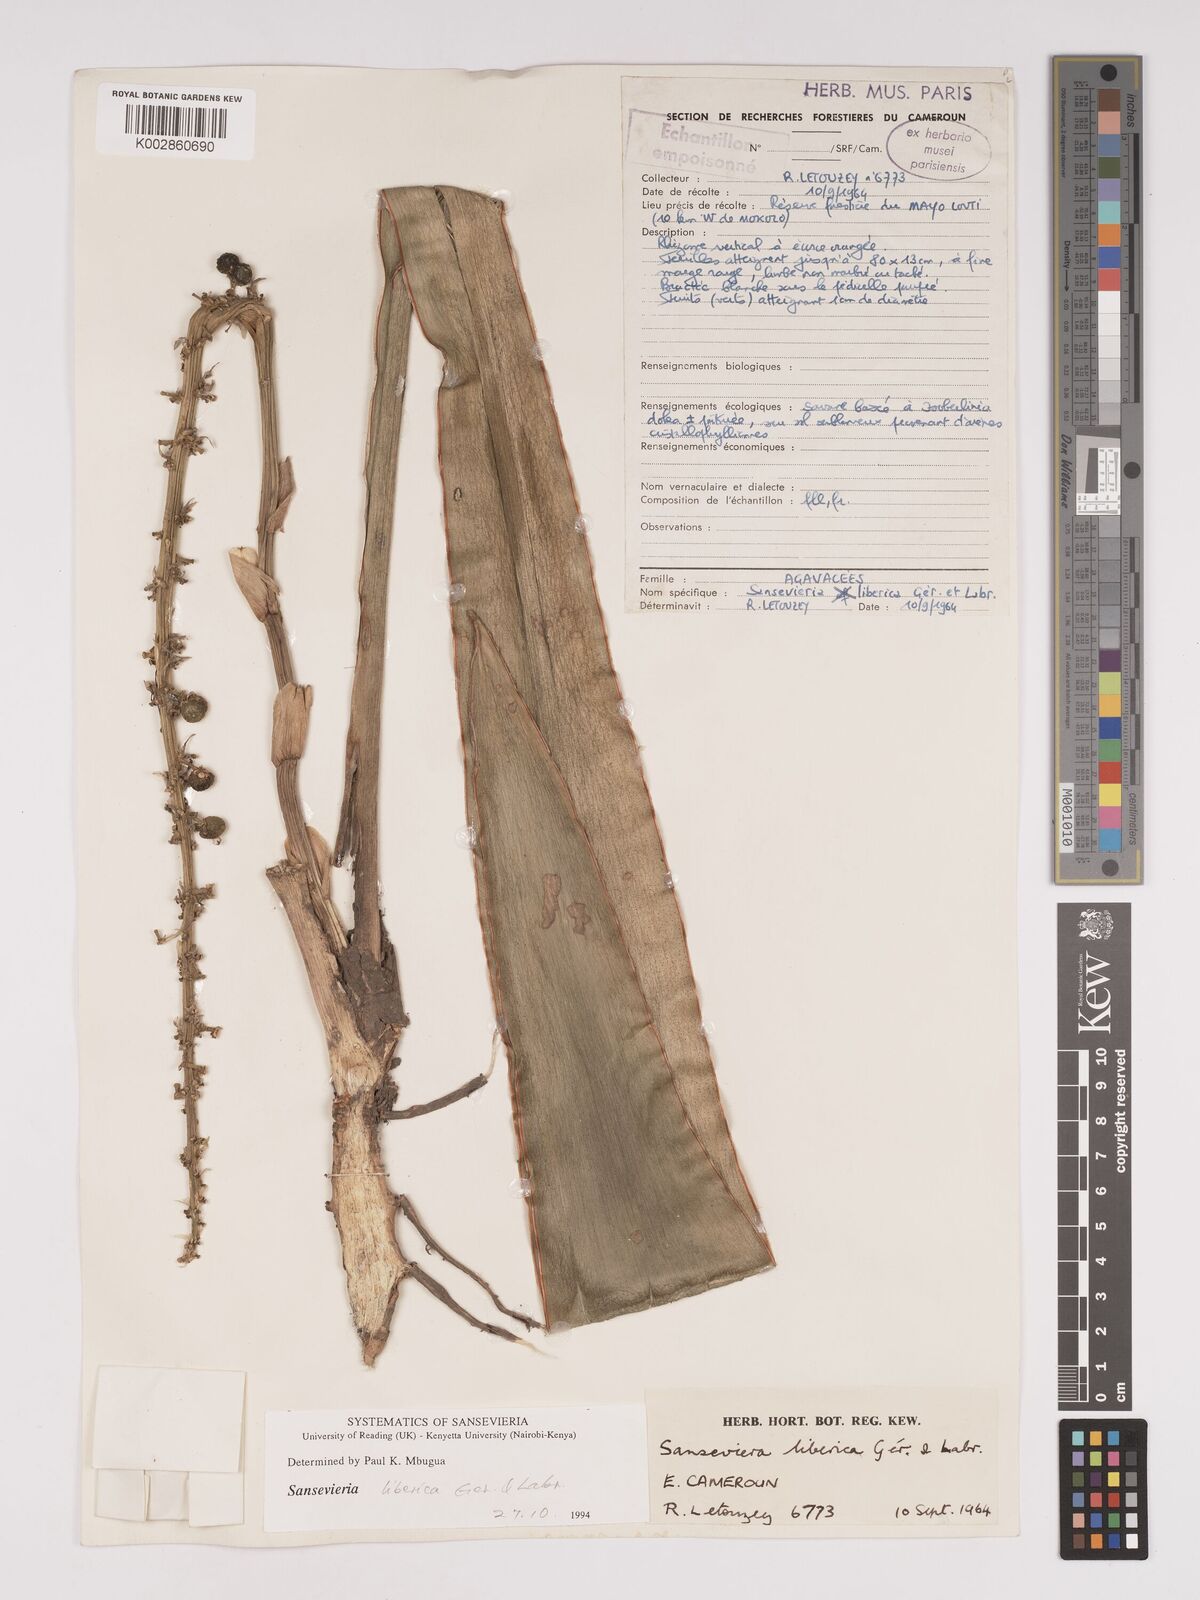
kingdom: Plantae
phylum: Tracheophyta
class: Liliopsida
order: Asparagales
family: Asparagaceae
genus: Dracaena
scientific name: Dracaena liberica
